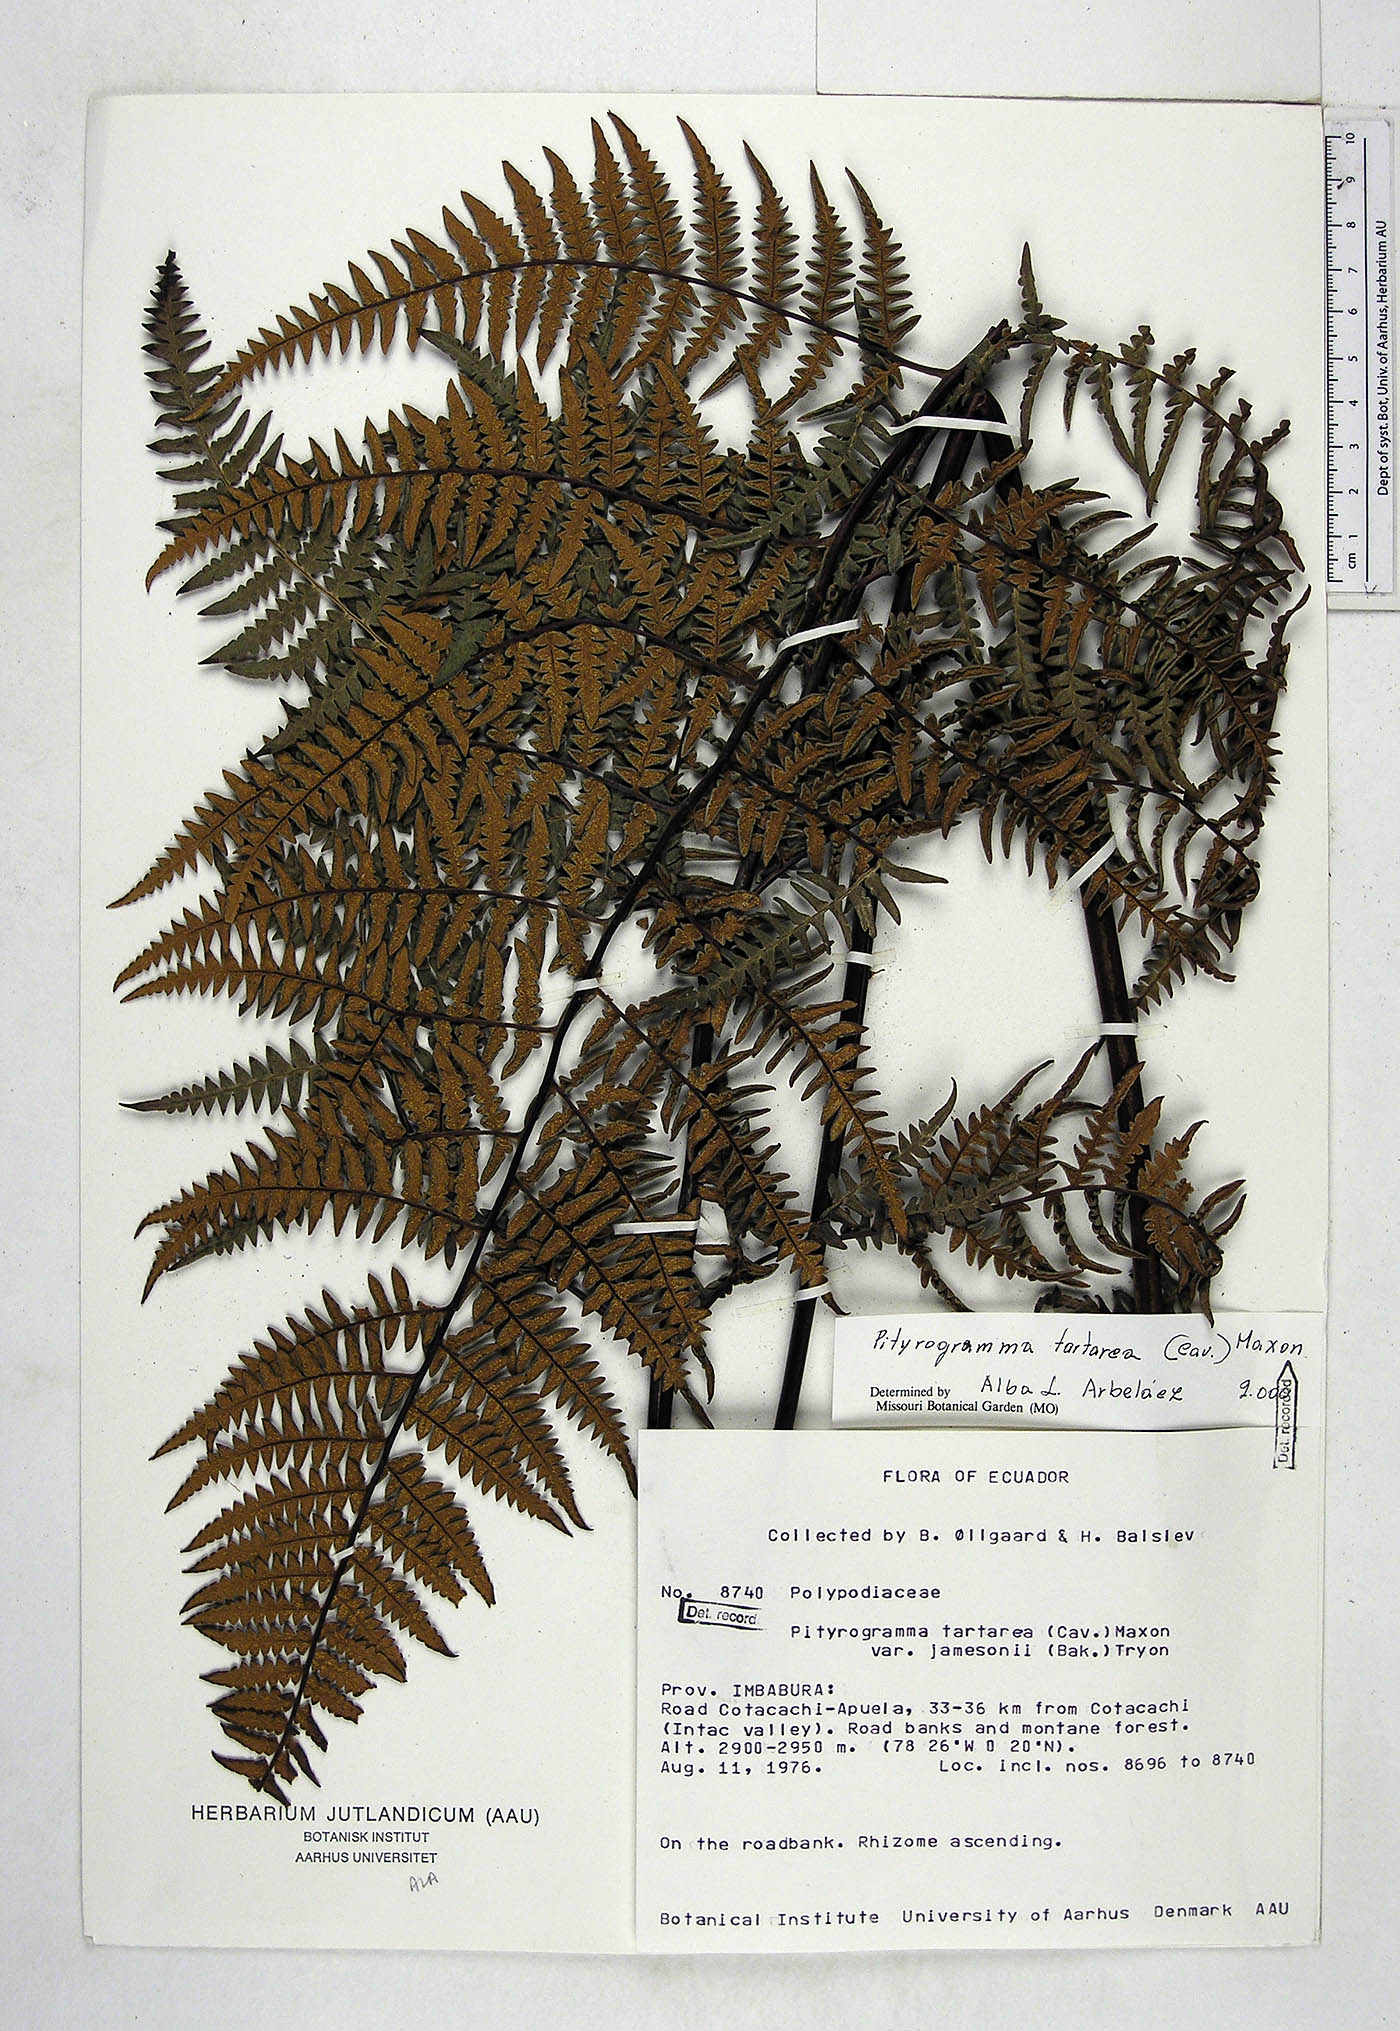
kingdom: Plantae
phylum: Tracheophyta
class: Polypodiopsida
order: Polypodiales
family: Pteridaceae
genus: Pityrogramma
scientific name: Pityrogramma jamesonii
